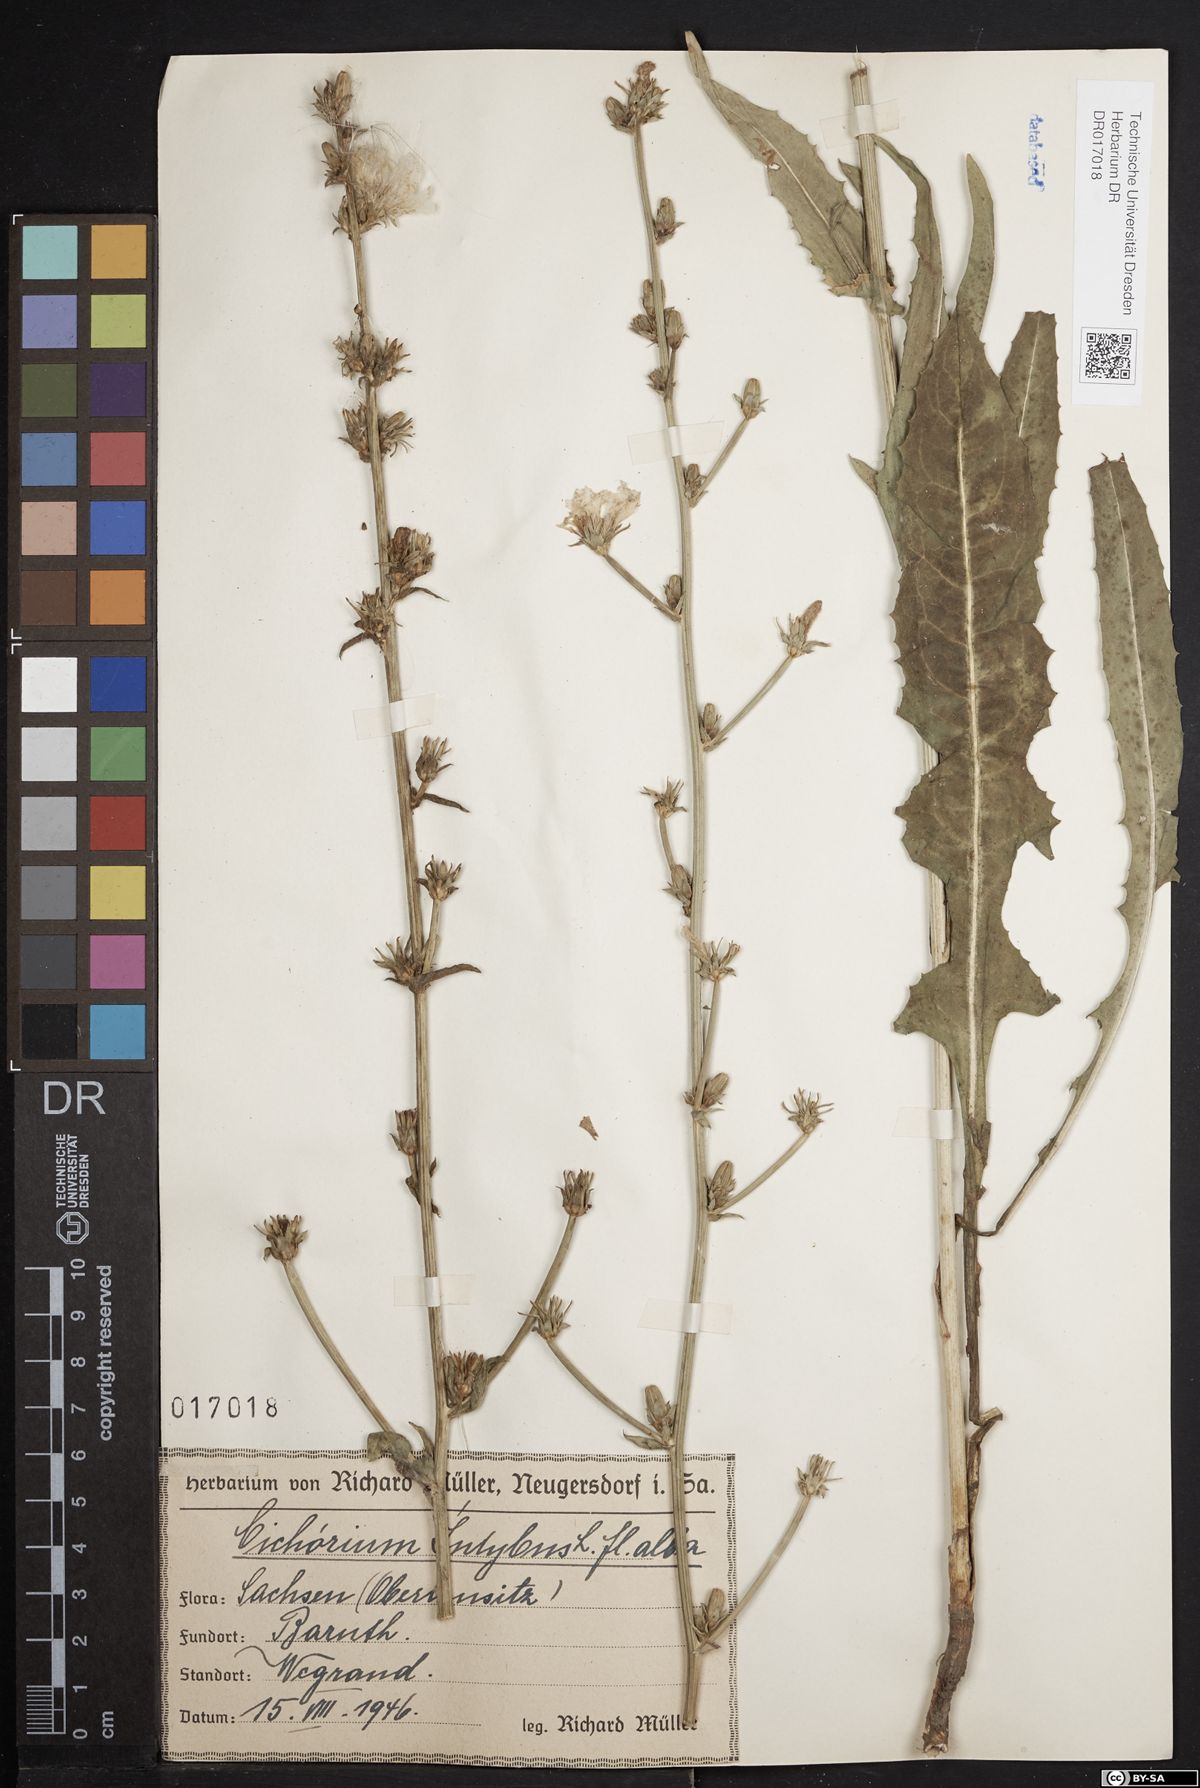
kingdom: Plantae
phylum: Tracheophyta
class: Magnoliopsida
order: Asterales
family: Asteraceae
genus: Cichorium
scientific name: Cichorium intybus
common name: Chicory
